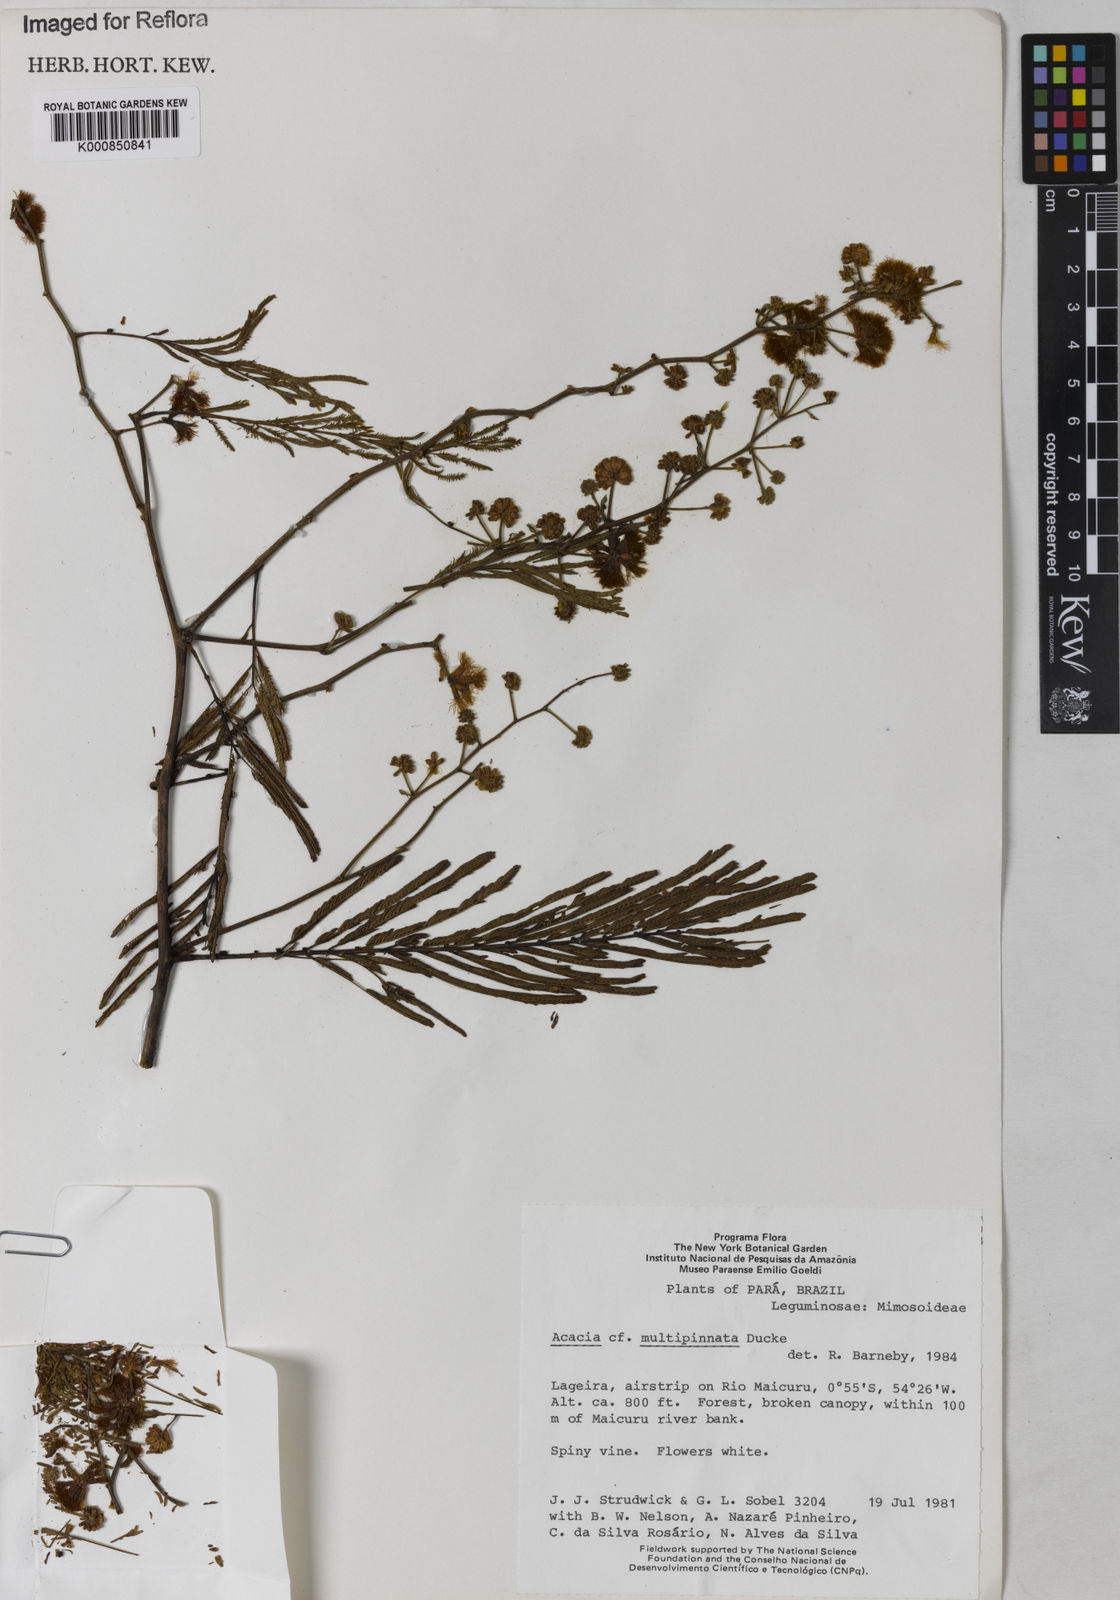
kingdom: Plantae
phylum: Tracheophyta
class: Magnoliopsida
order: Fabales
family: Fabaceae
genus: Senegalia
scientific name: Senegalia paniculata
